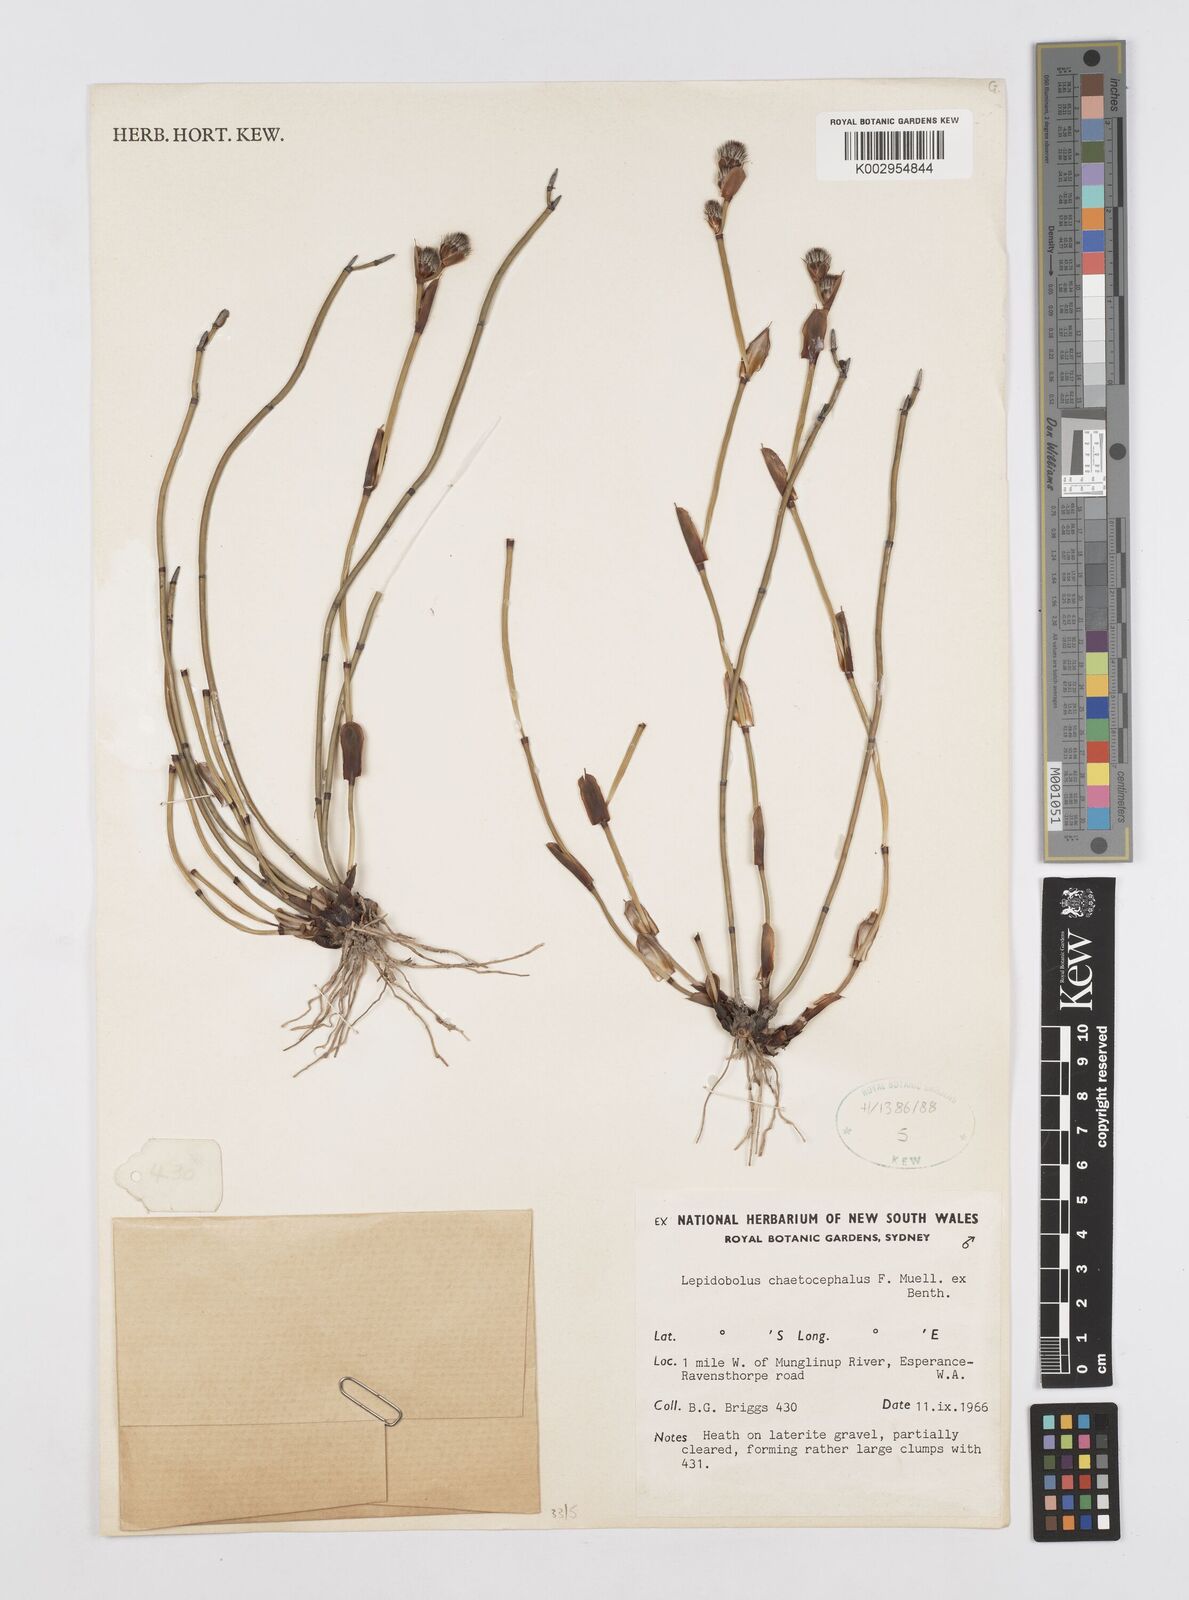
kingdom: Plantae
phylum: Tracheophyta
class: Liliopsida
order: Poales
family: Restionaceae
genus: Lepidobolus
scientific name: Lepidobolus chaetocephalus
